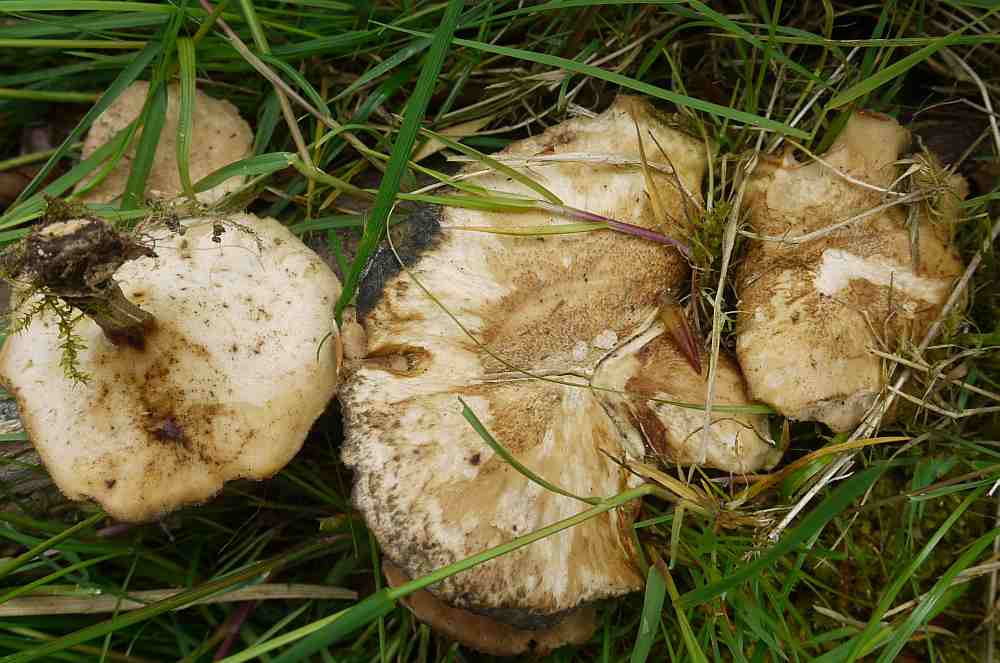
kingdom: Fungi
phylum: Basidiomycota
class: Agaricomycetes
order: Polyporales
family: Polyporaceae
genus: Lentinus
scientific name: Lentinus substrictus
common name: forårs-stilkporesvamp
